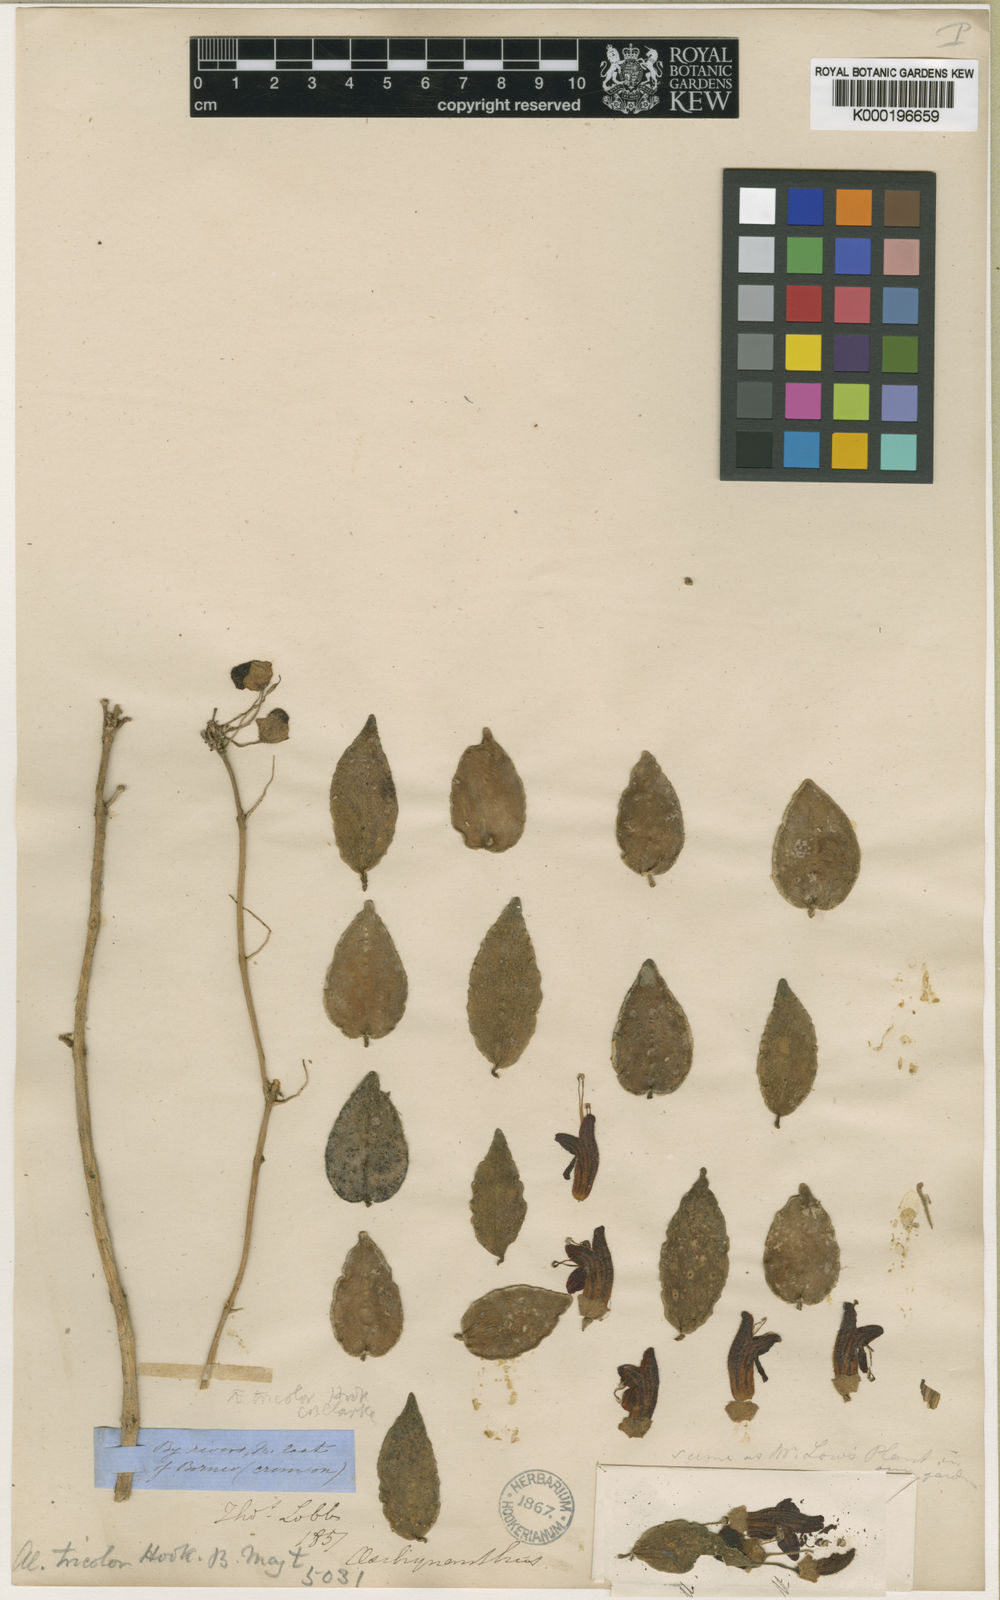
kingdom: Plantae
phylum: Tracheophyta
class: Magnoliopsida
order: Lamiales
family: Gesneriaceae
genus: Aeschynanthus
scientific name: Aeschynanthus tricolor
